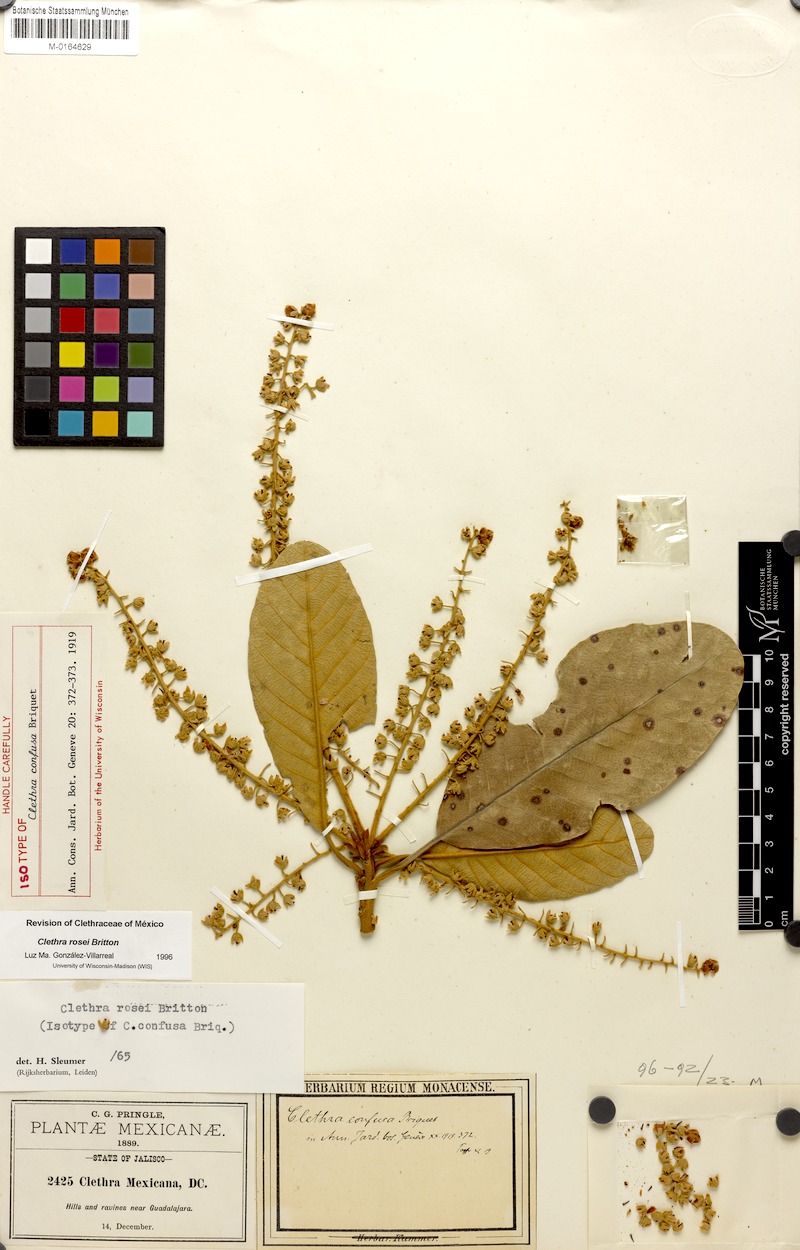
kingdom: Plantae
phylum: Tracheophyta
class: Magnoliopsida
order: Ericales
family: Clethraceae
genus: Clethra
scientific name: Clethra rosei
